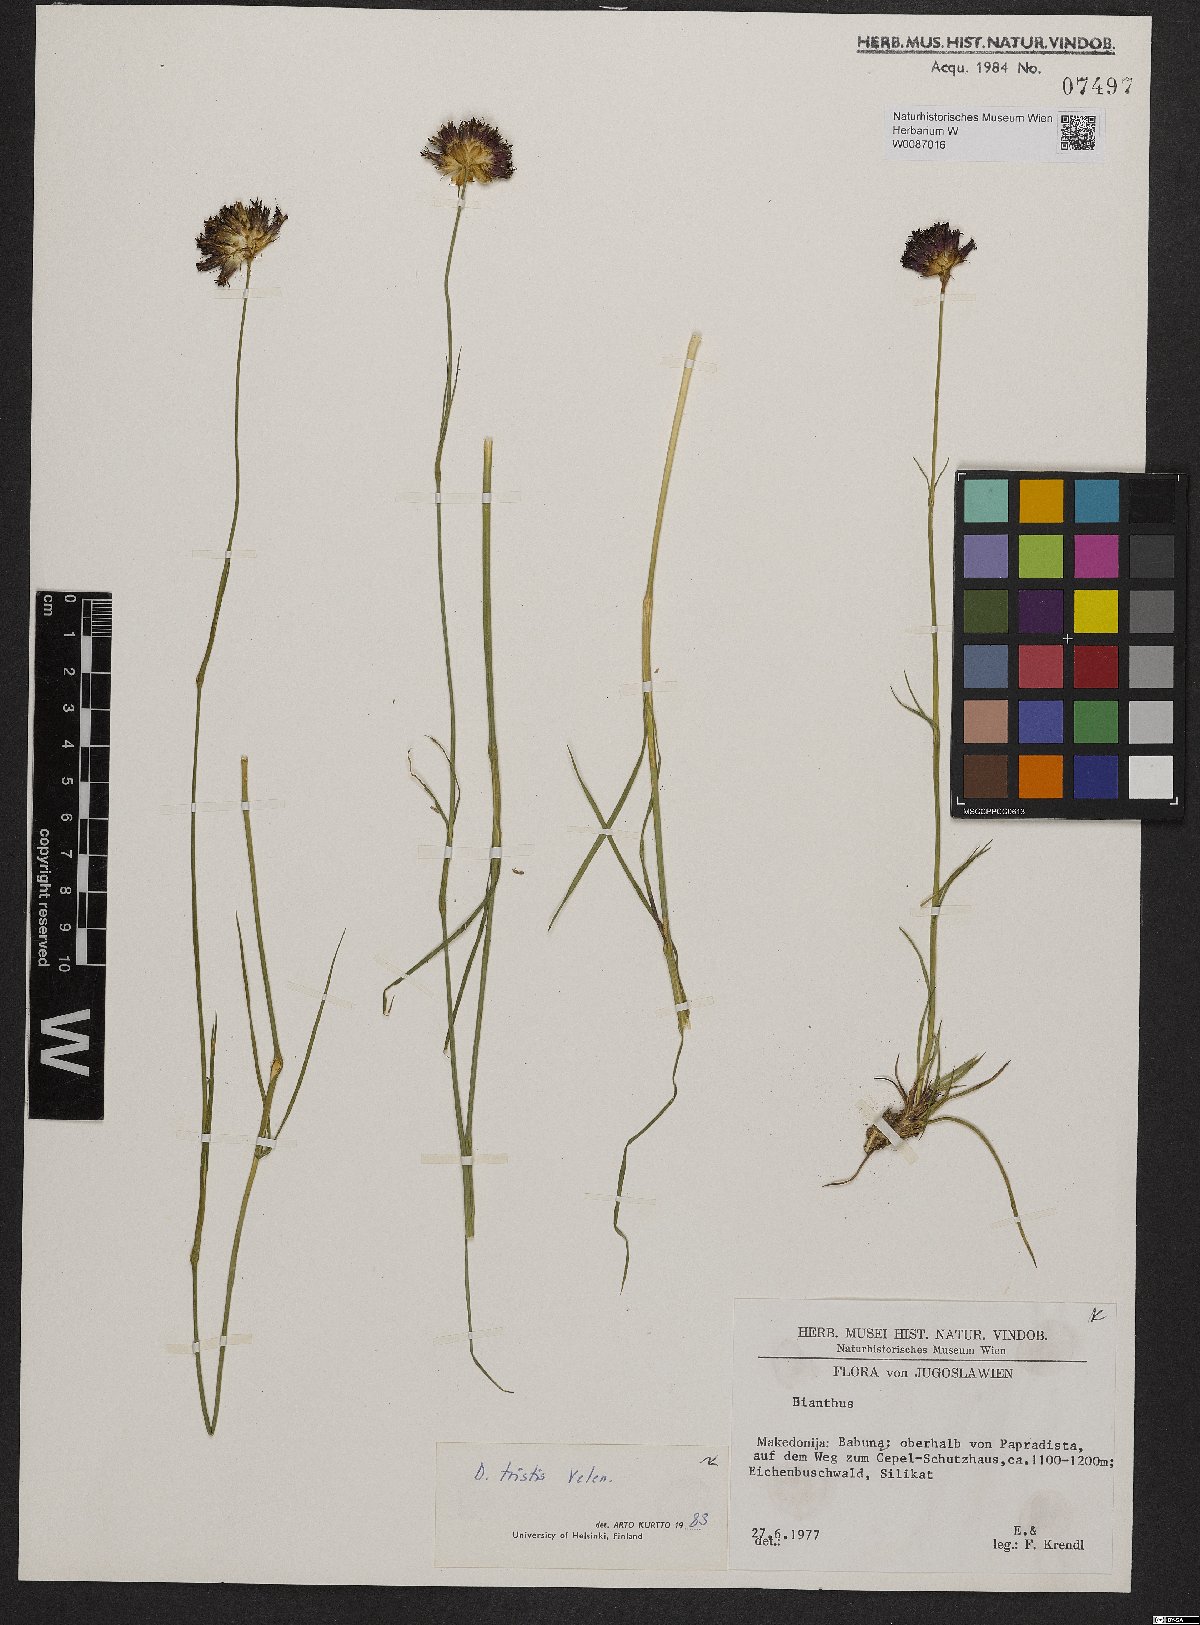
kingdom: Plantae
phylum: Tracheophyta
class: Magnoliopsida
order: Caryophyllales
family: Caryophyllaceae
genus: Dianthus
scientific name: Dianthus pancicii
